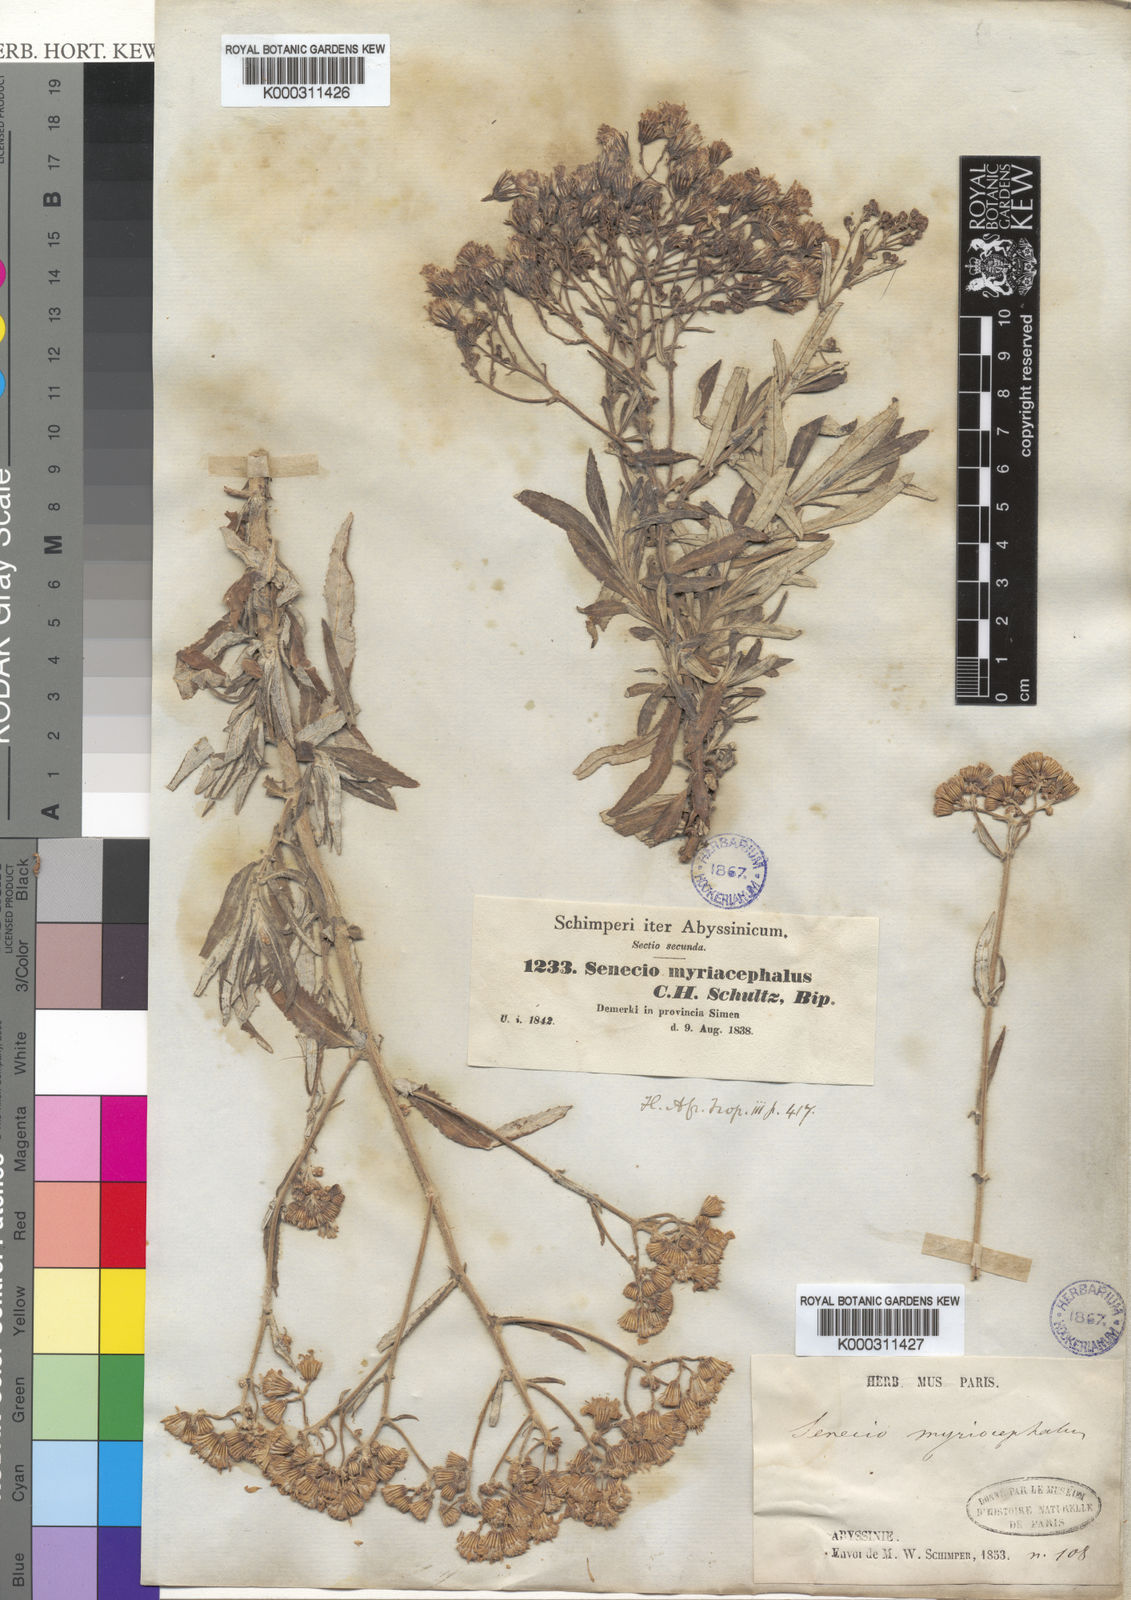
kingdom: Plantae
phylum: Tracheophyta
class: Magnoliopsida
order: Asterales
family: Asteraceae
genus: Senecio
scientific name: Senecio myriocephalus
